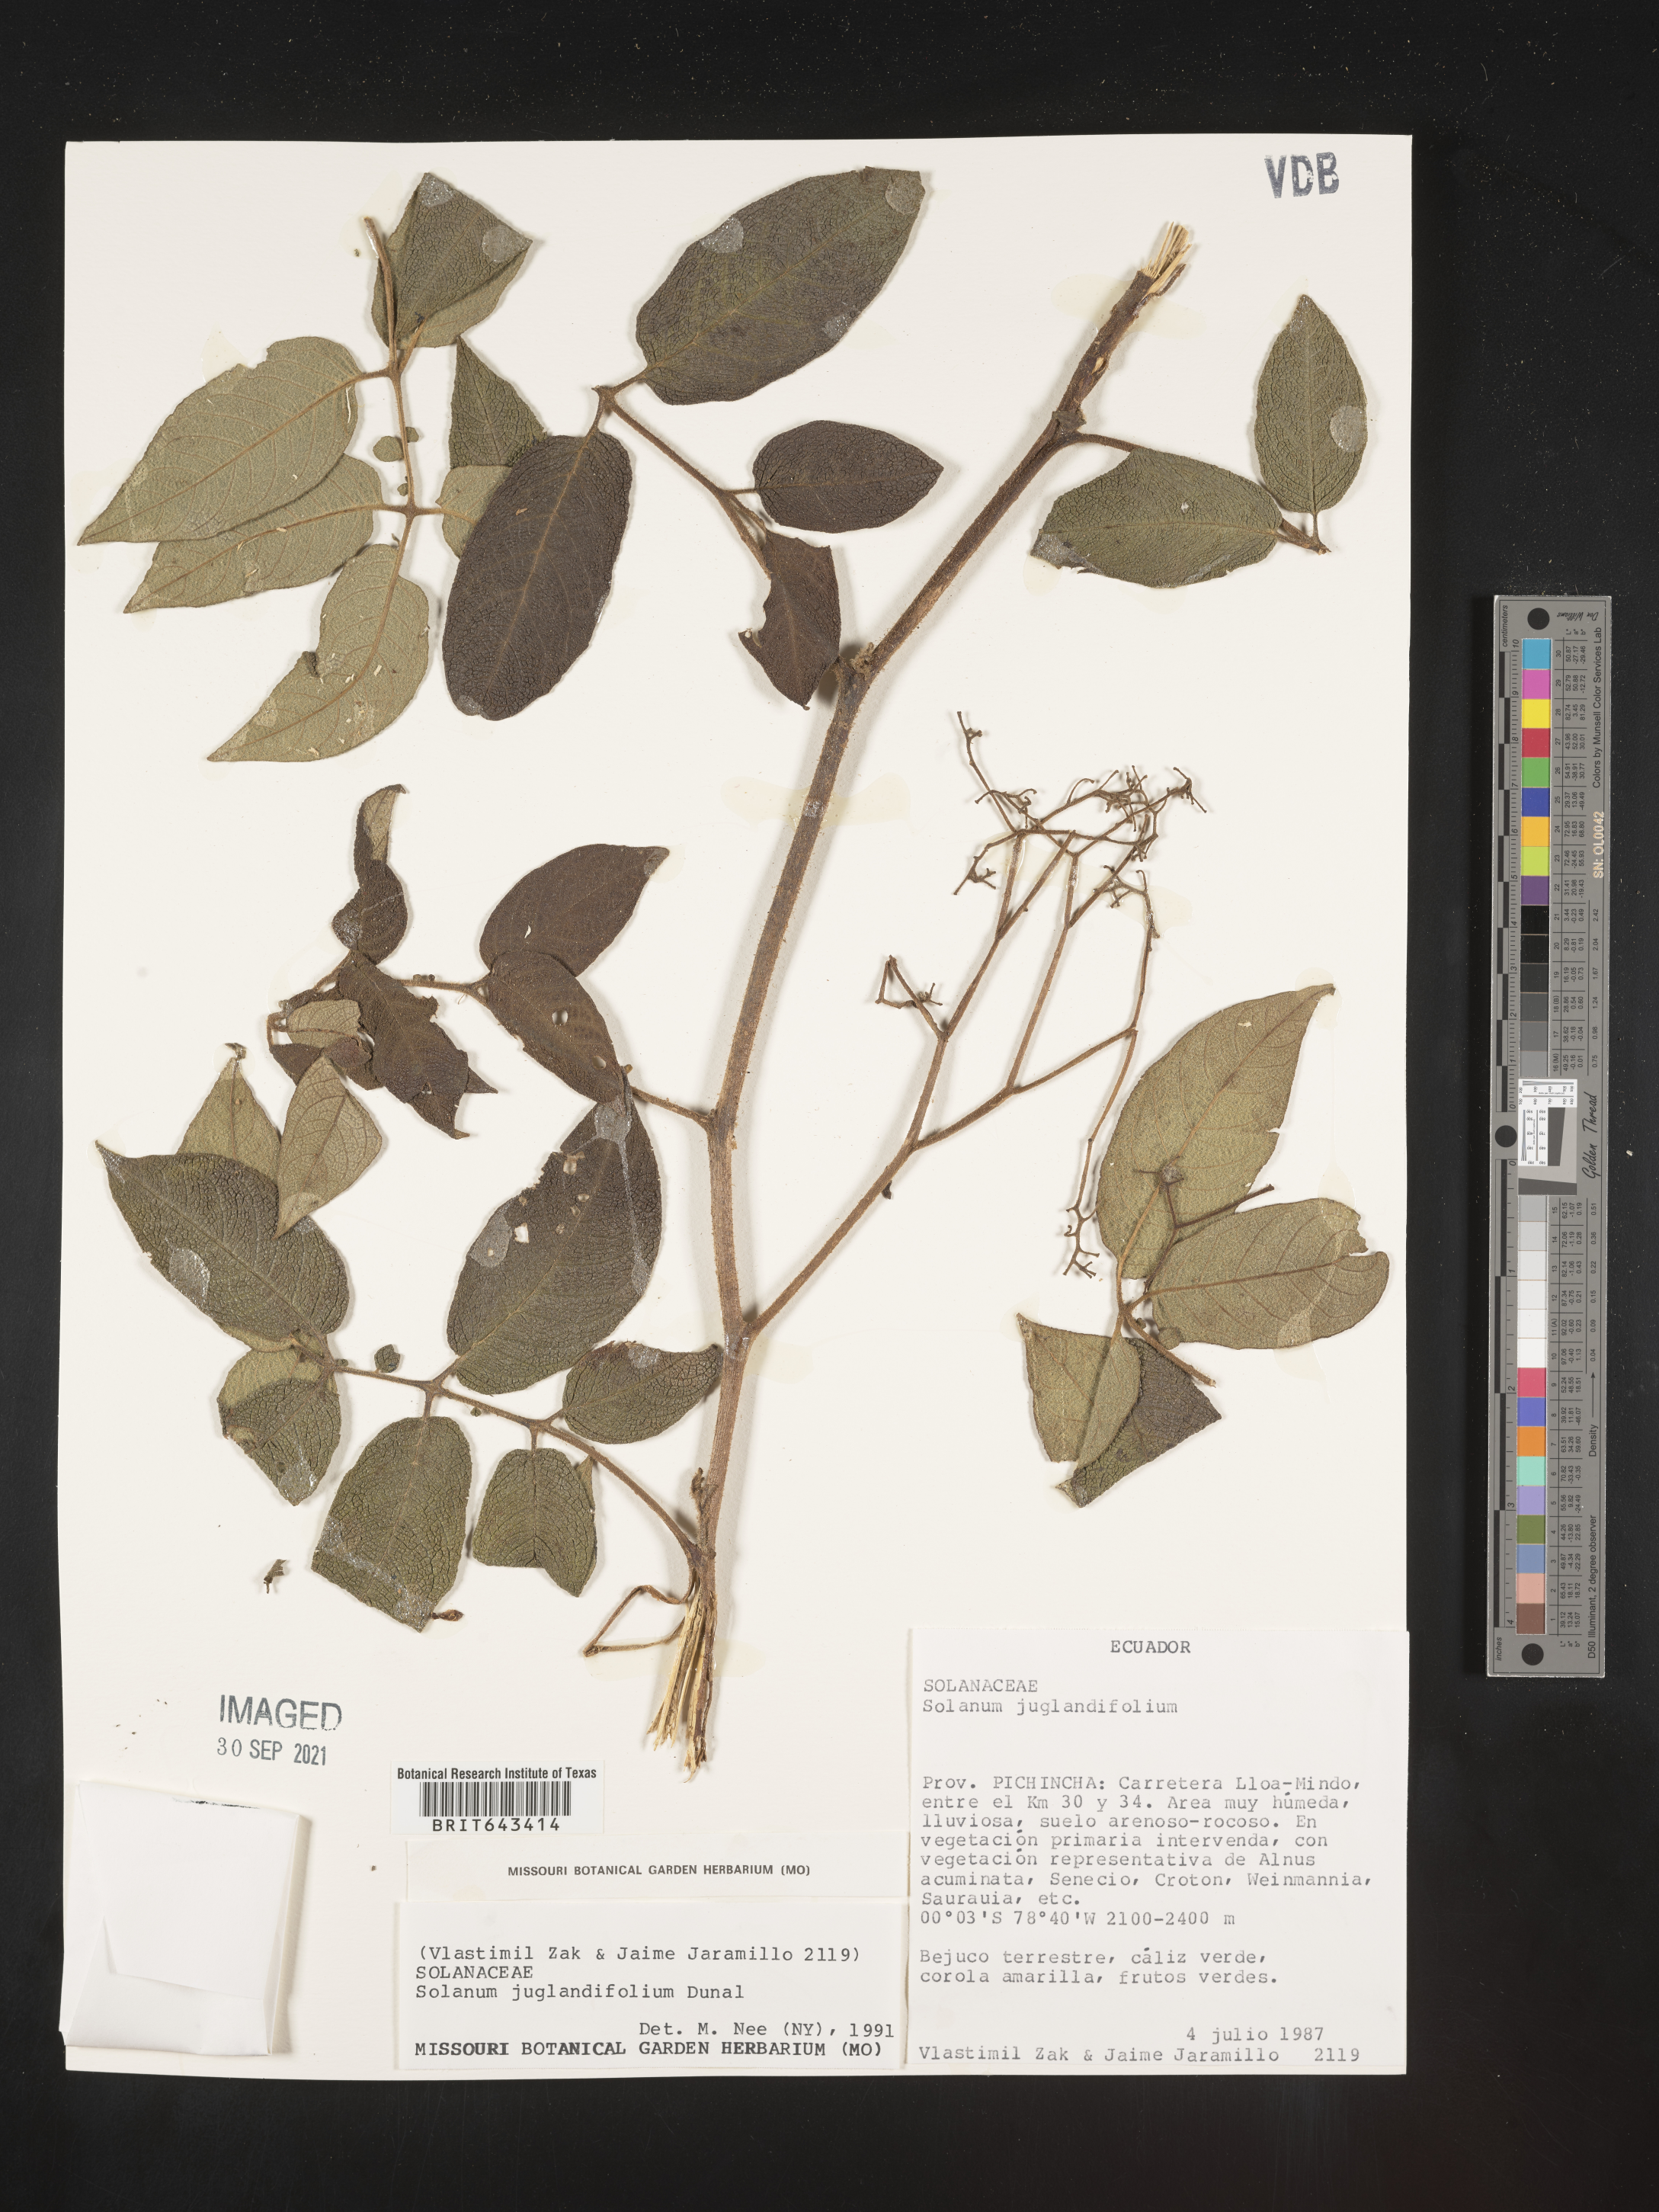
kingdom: Plantae
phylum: Tracheophyta
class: Magnoliopsida
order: Solanales
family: Solanaceae
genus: Solanum
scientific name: Solanum
